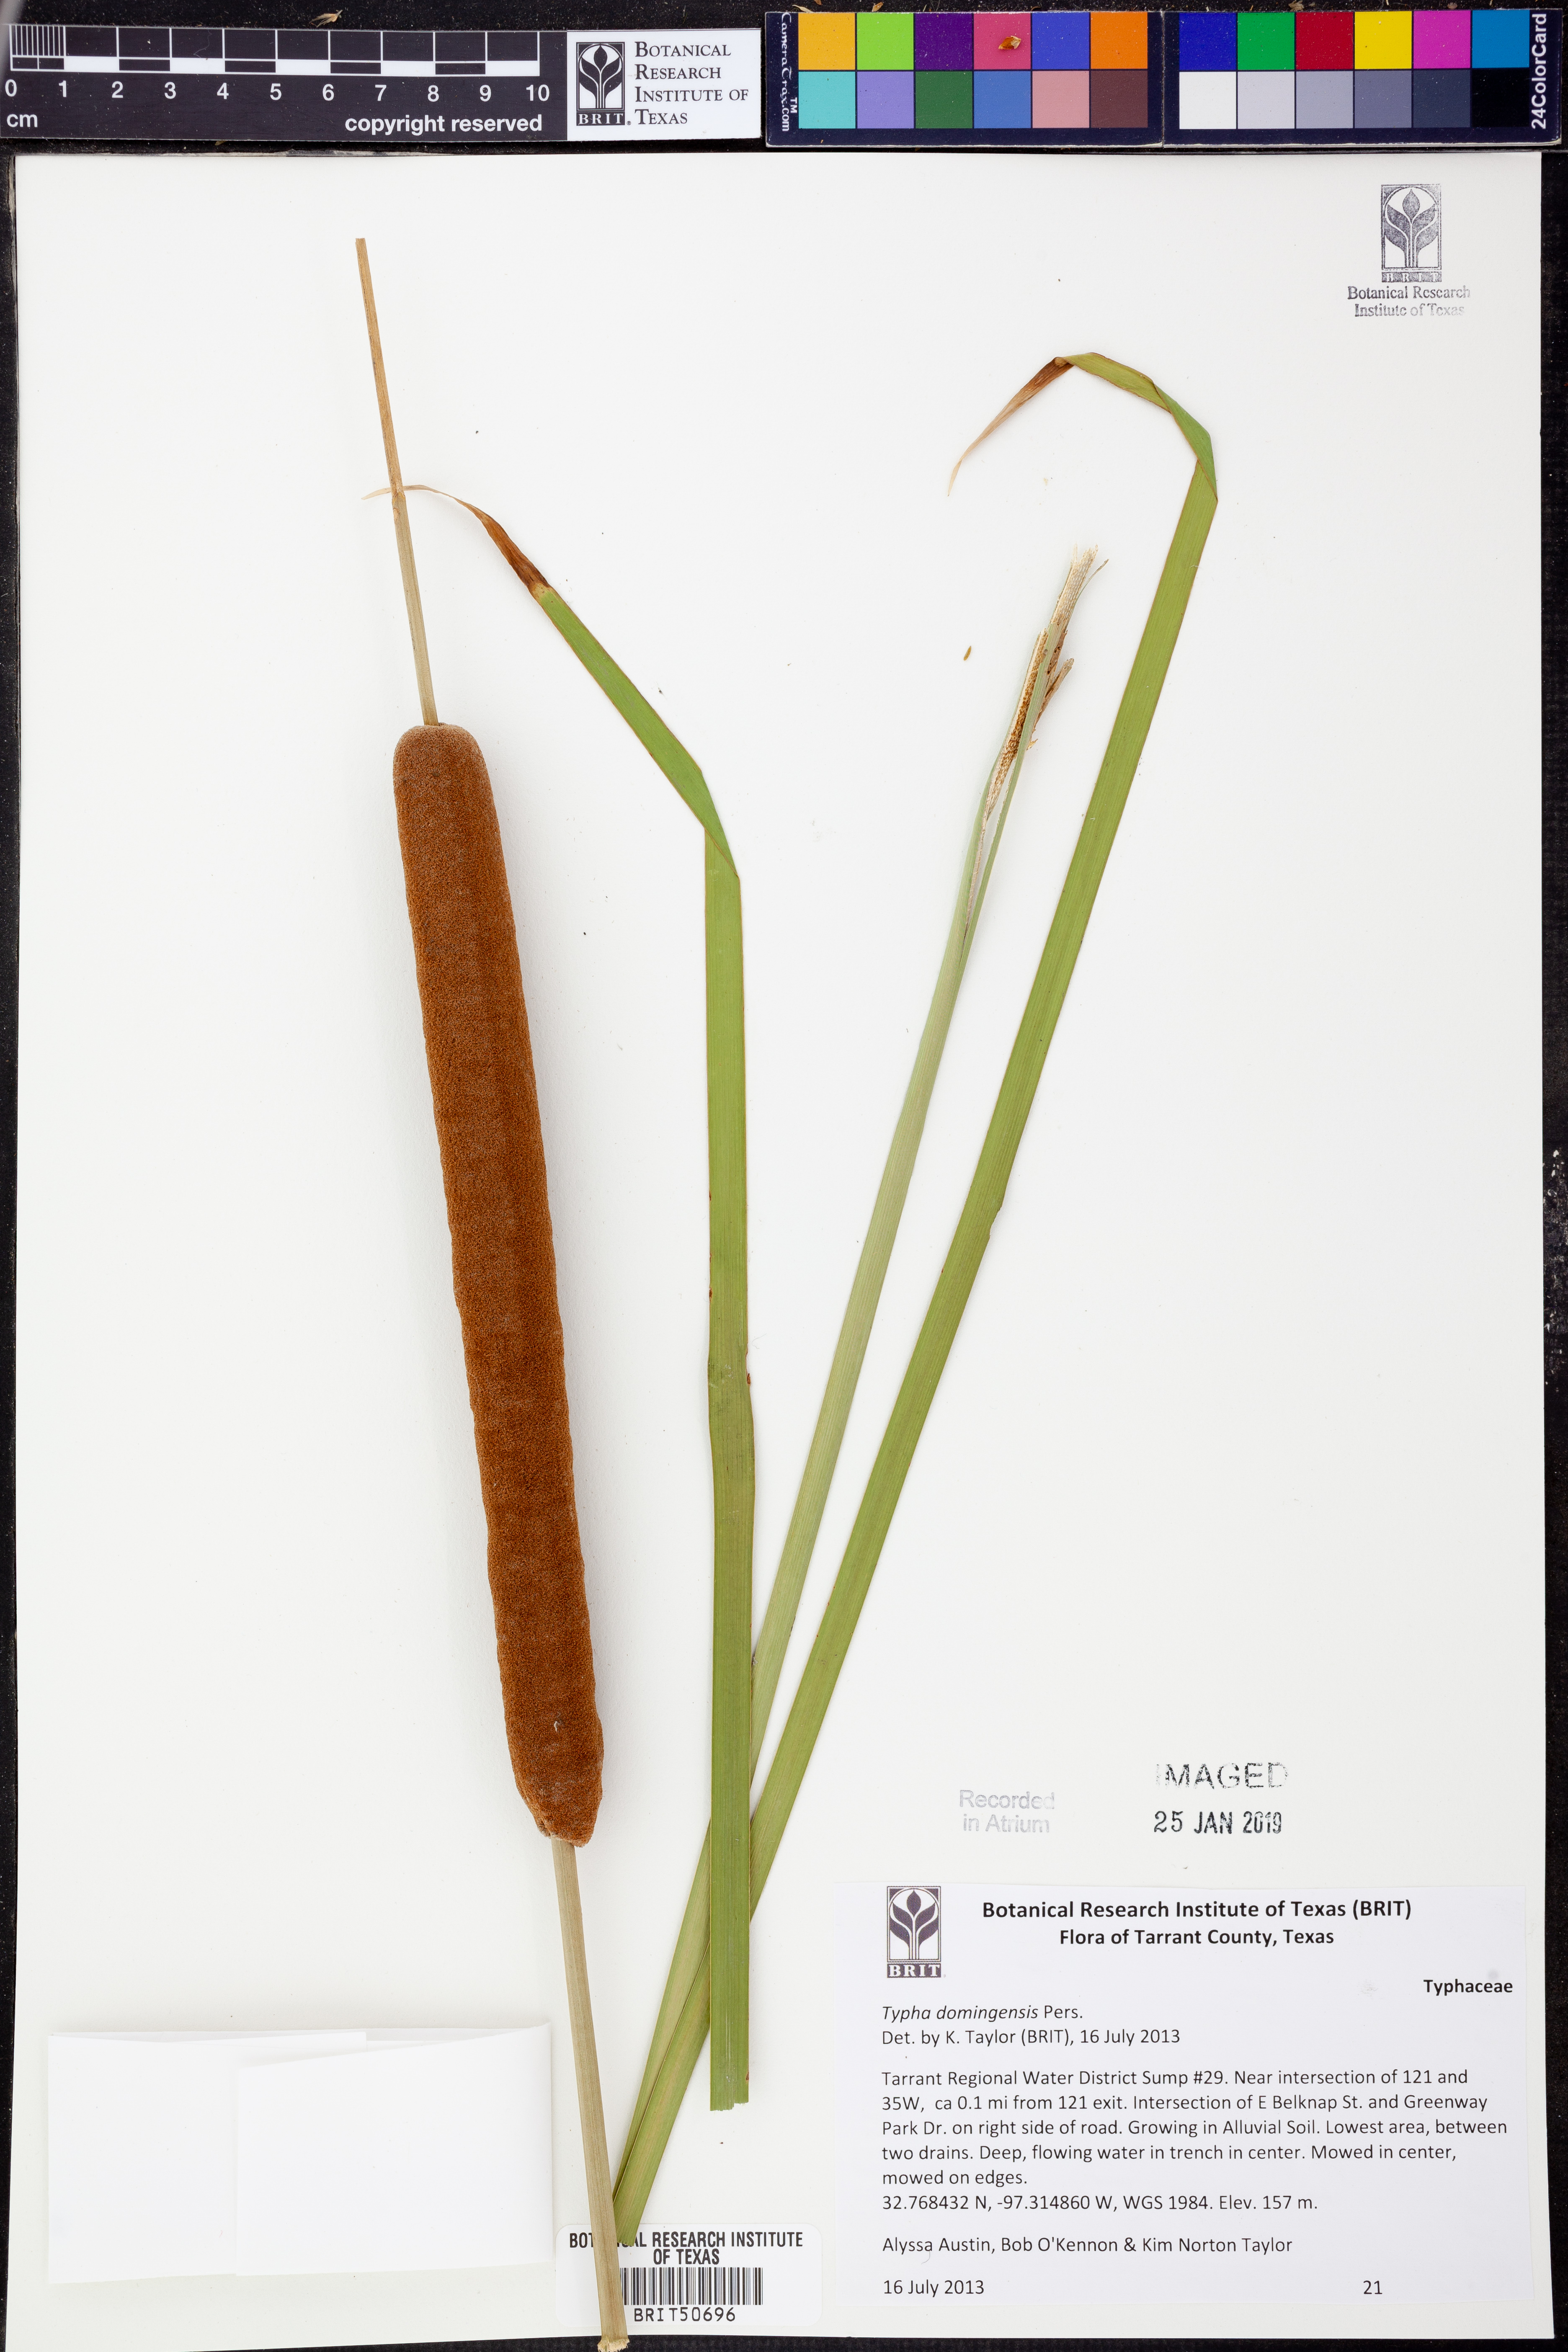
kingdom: Plantae
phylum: Tracheophyta
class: Liliopsida
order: Poales
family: Typhaceae
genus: Typha
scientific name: Typha domingensis
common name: Southern cattail
